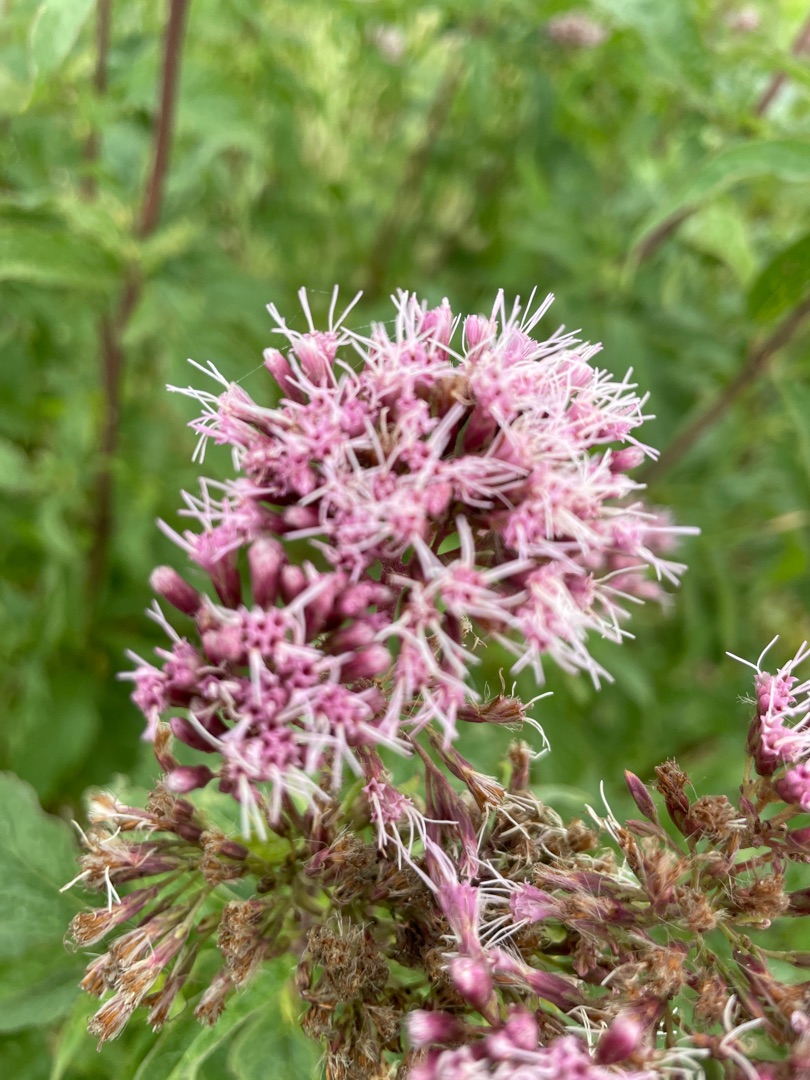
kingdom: Plantae
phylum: Tracheophyta
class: Magnoliopsida
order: Asterales
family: Asteraceae
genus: Eupatorium
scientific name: Eupatorium cannabinum
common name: Hjortetrøst
